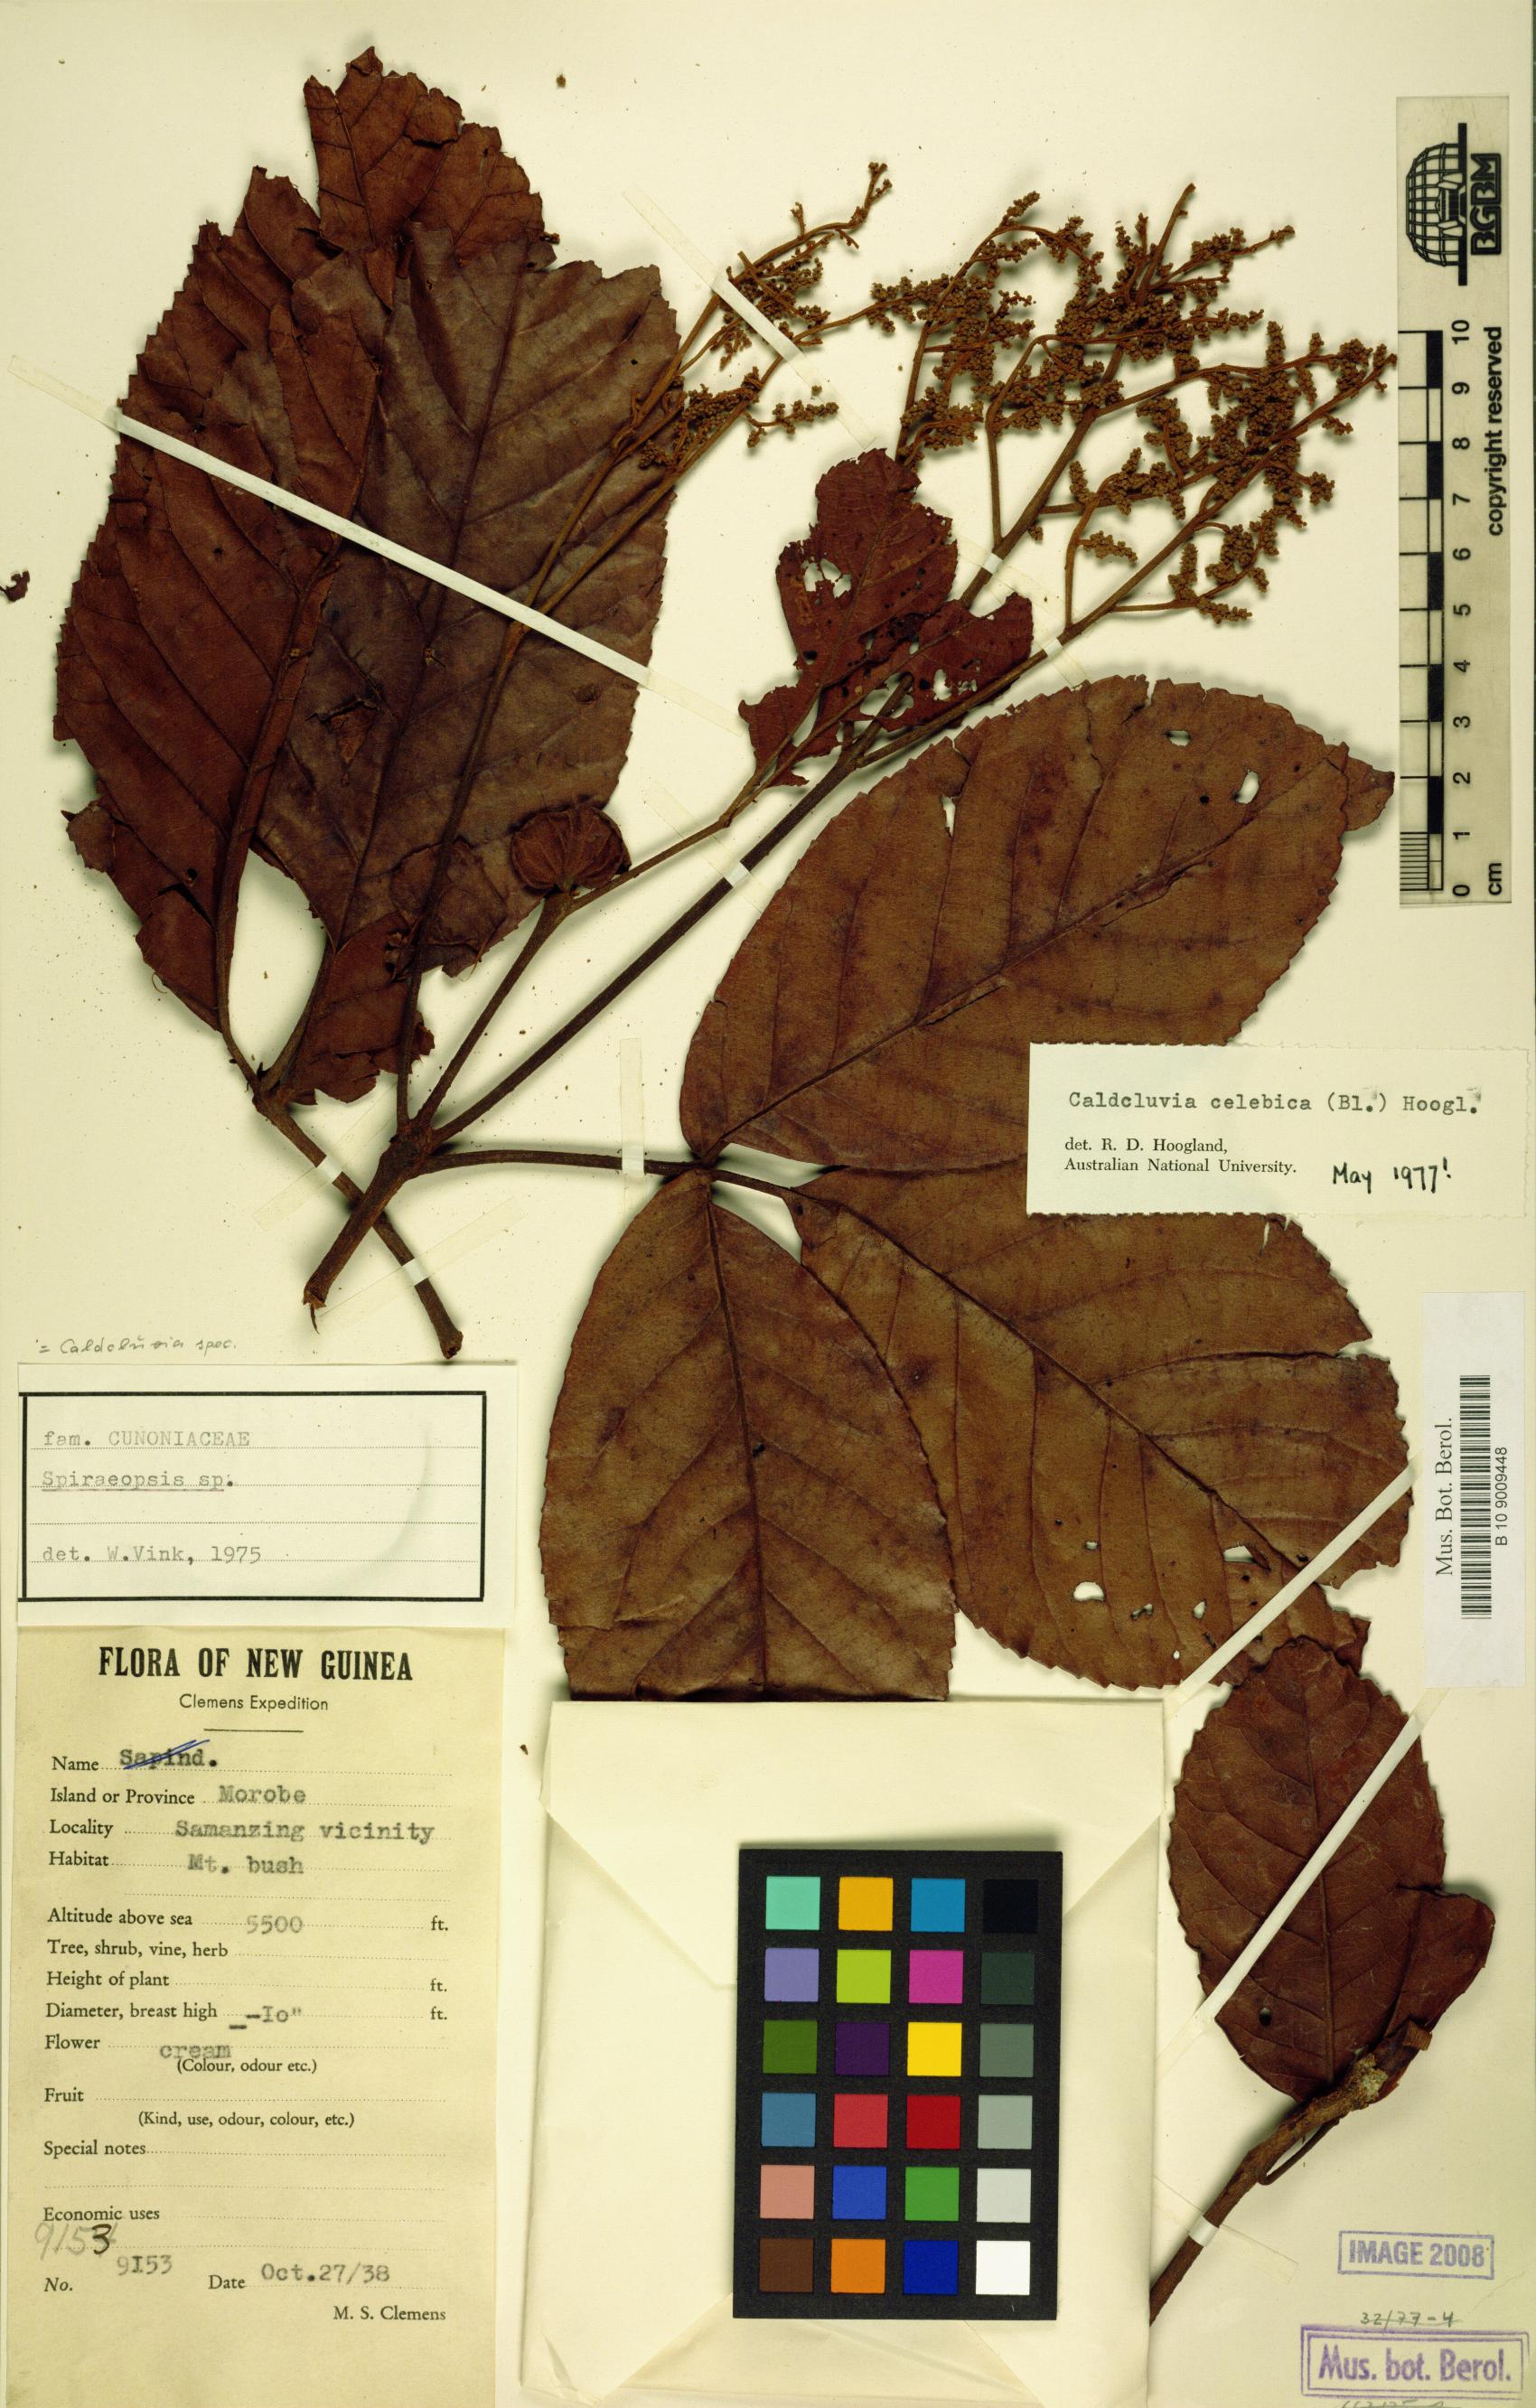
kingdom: Plantae
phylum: Tracheophyta
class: Magnoliopsida
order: Oxalidales
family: Cunoniaceae
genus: Ackama
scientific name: Ackama celebica
